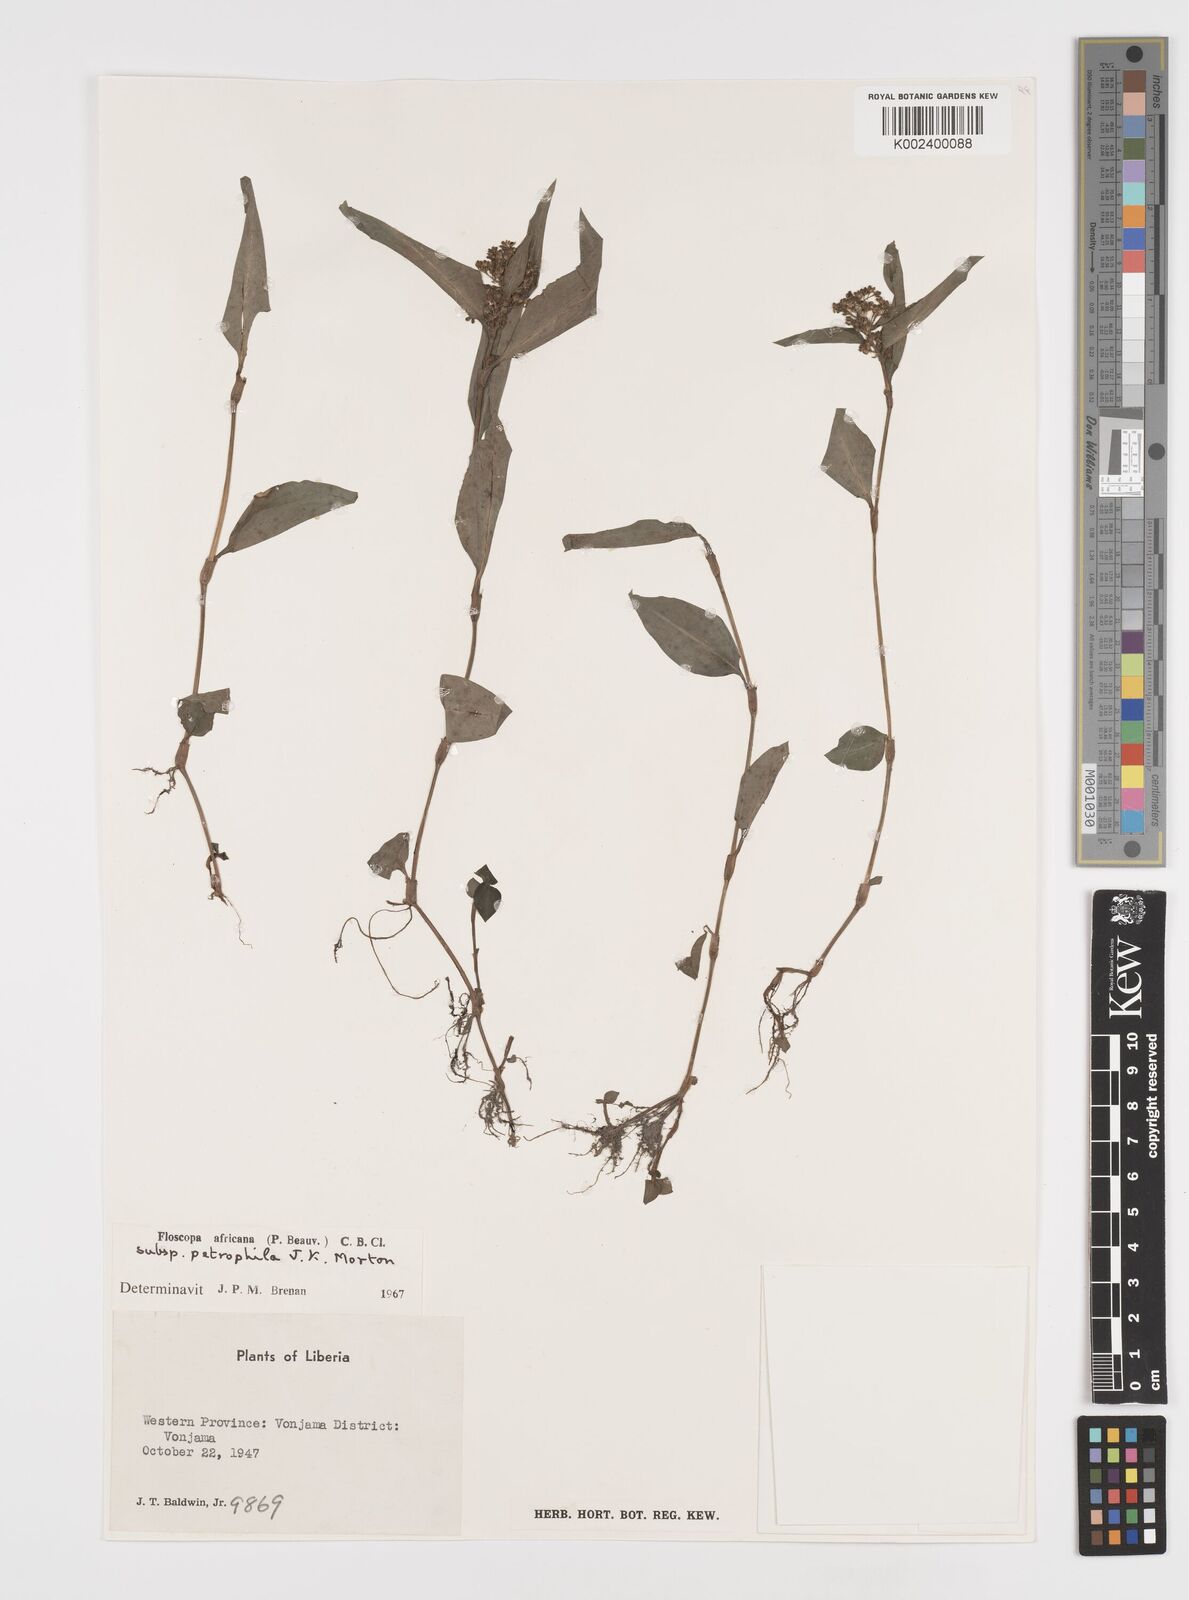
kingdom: Plantae
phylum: Tracheophyta
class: Liliopsida
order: Commelinales
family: Commelinaceae
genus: Floscopa
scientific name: Floscopa africana
